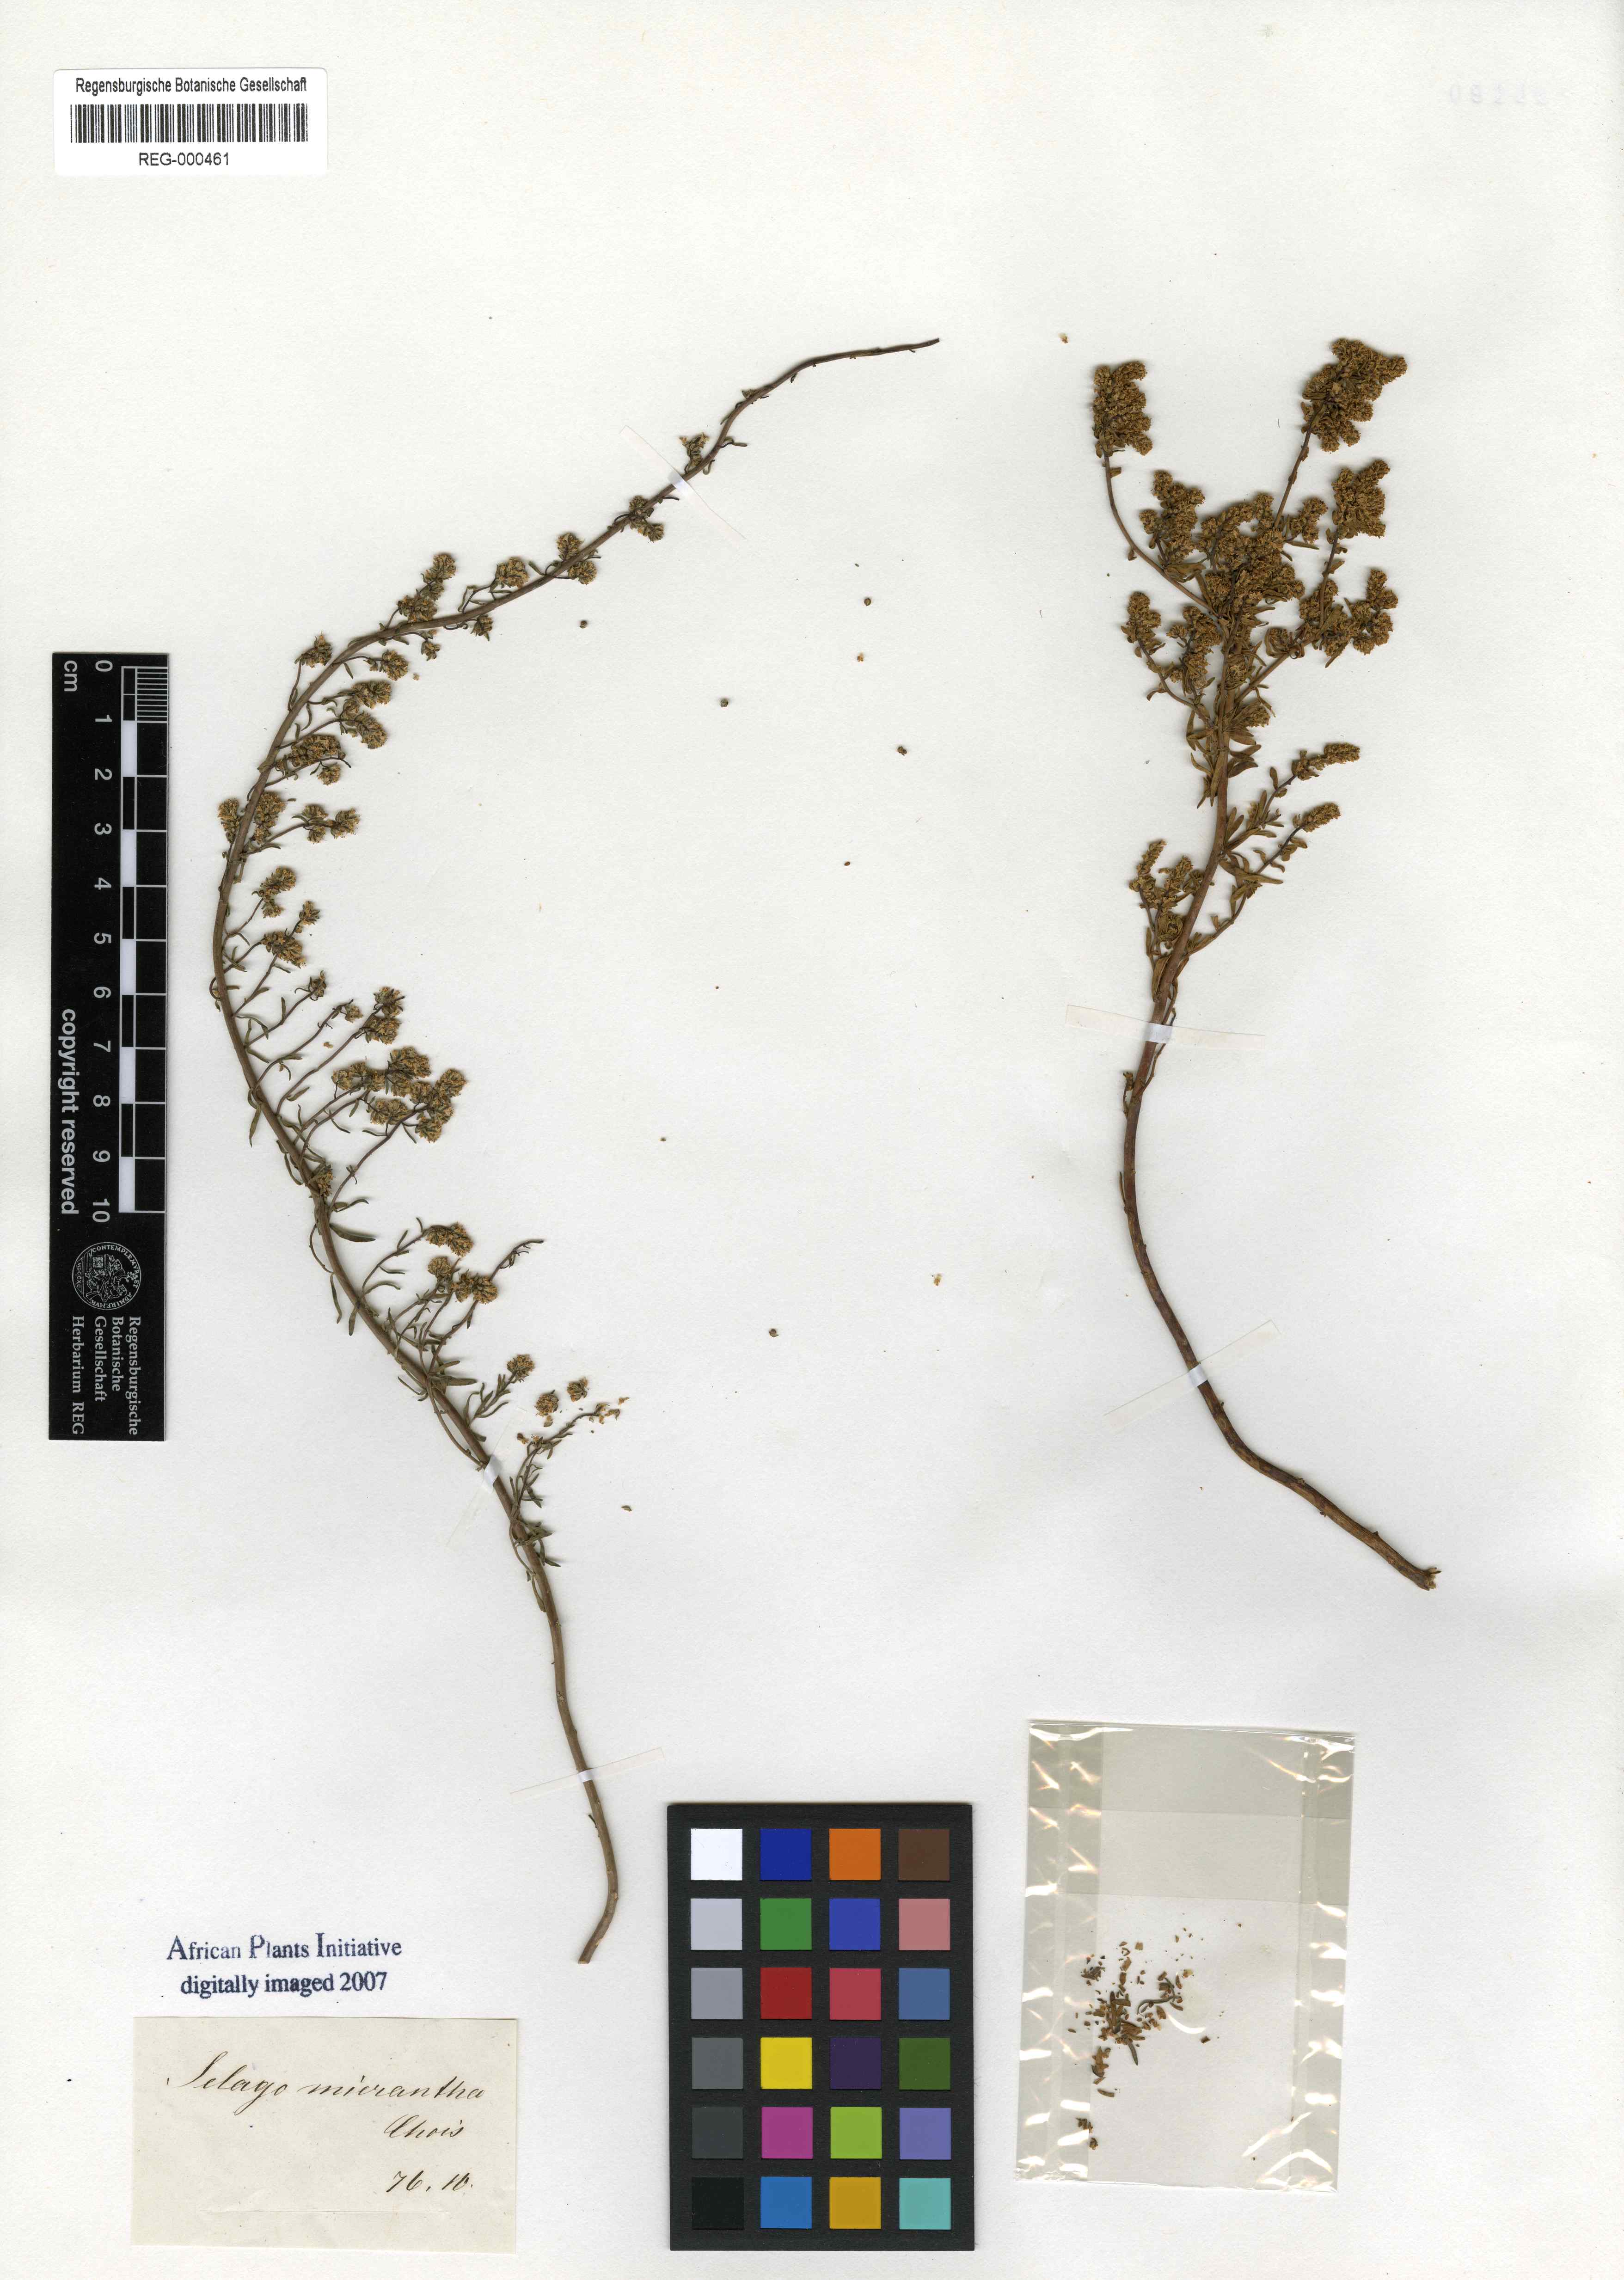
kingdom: Plantae
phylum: Tracheophyta
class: Magnoliopsida
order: Lamiales
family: Scrophulariaceae
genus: Selago
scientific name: Selago paniculata
